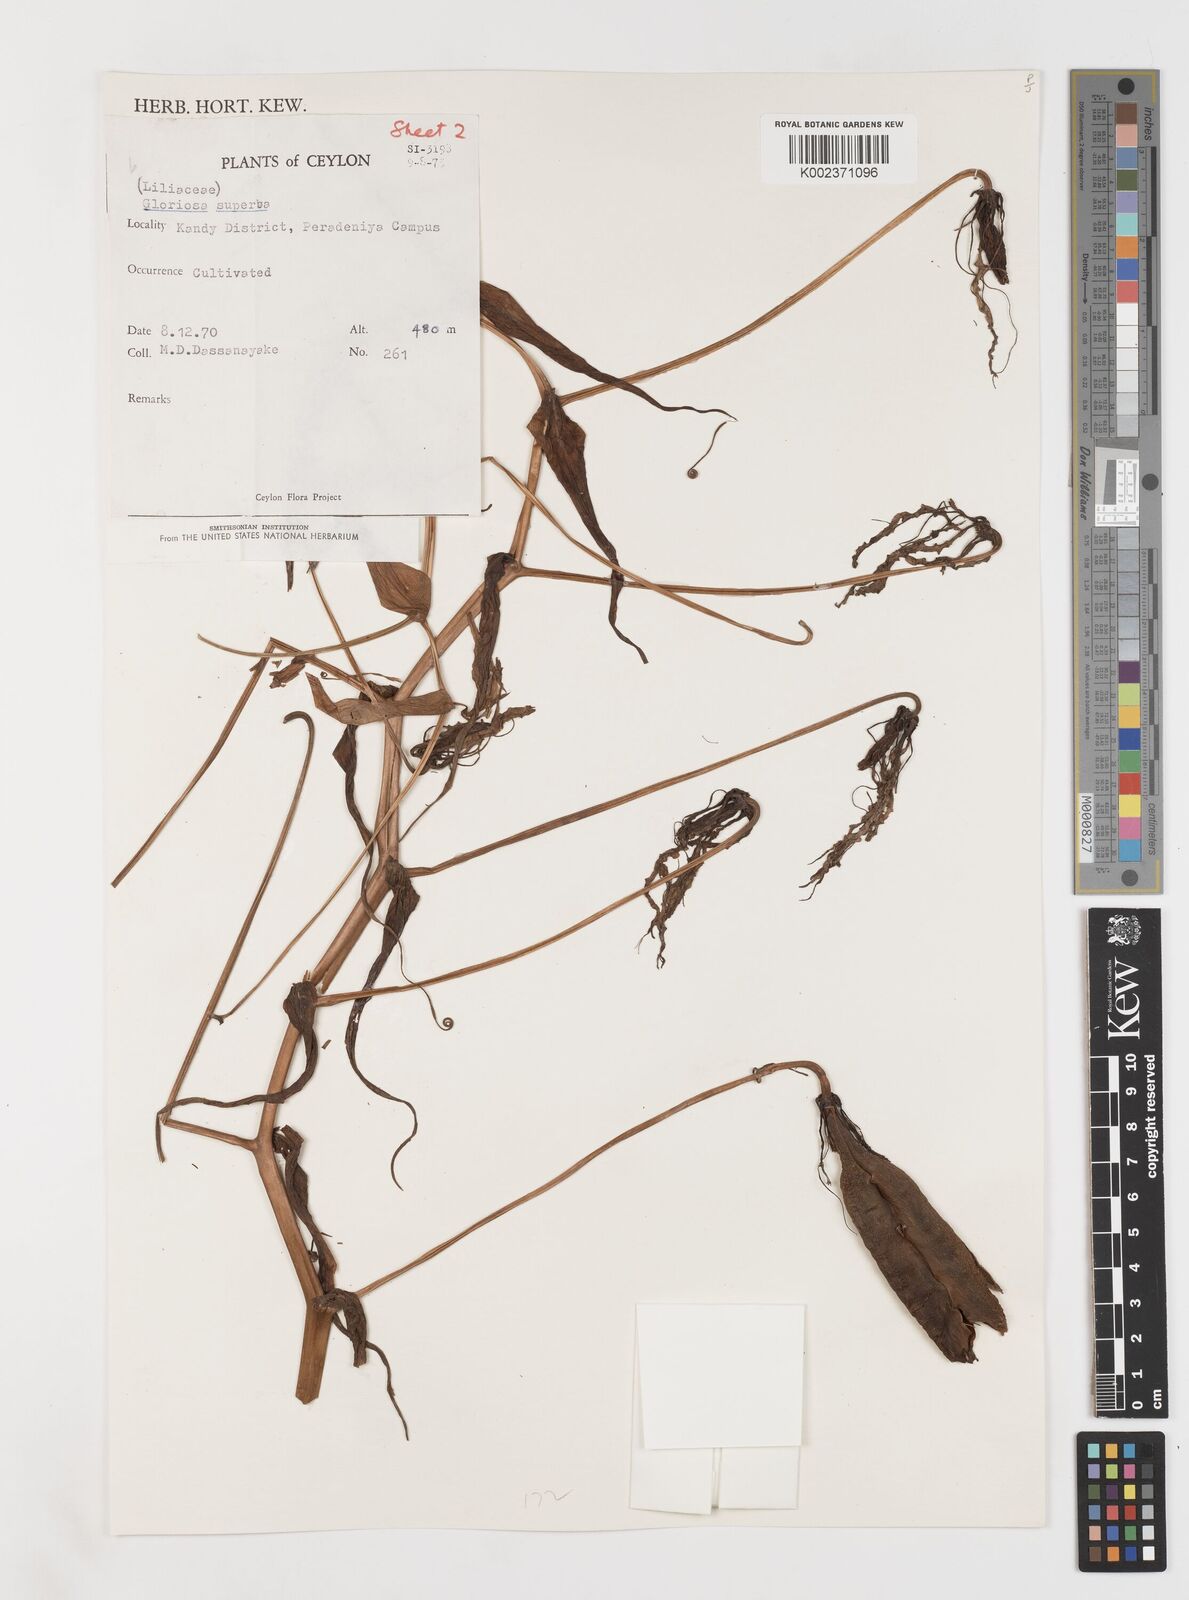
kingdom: Plantae
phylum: Tracheophyta
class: Liliopsida
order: Liliales
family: Colchicaceae
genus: Gloriosa
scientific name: Gloriosa superba
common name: Flame lily
